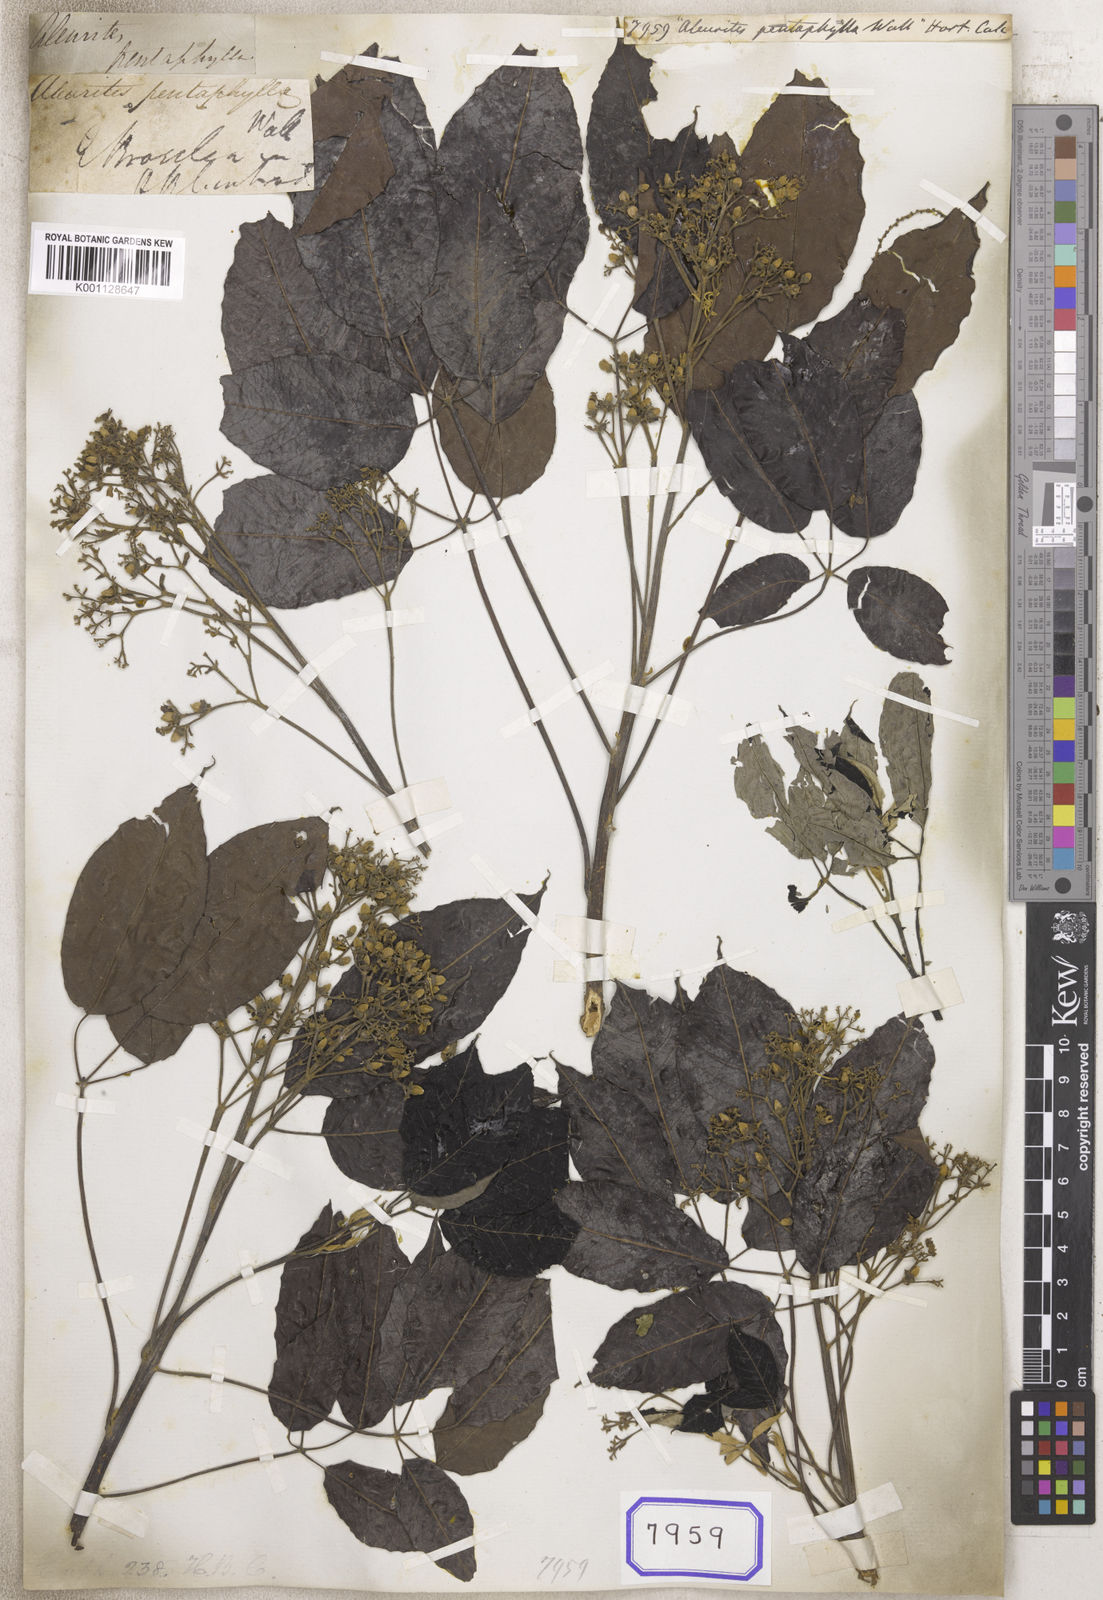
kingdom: Plantae
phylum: Tracheophyta
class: Magnoliopsida
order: Malpighiales
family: Euphorbiaceae
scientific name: Euphorbiaceae
